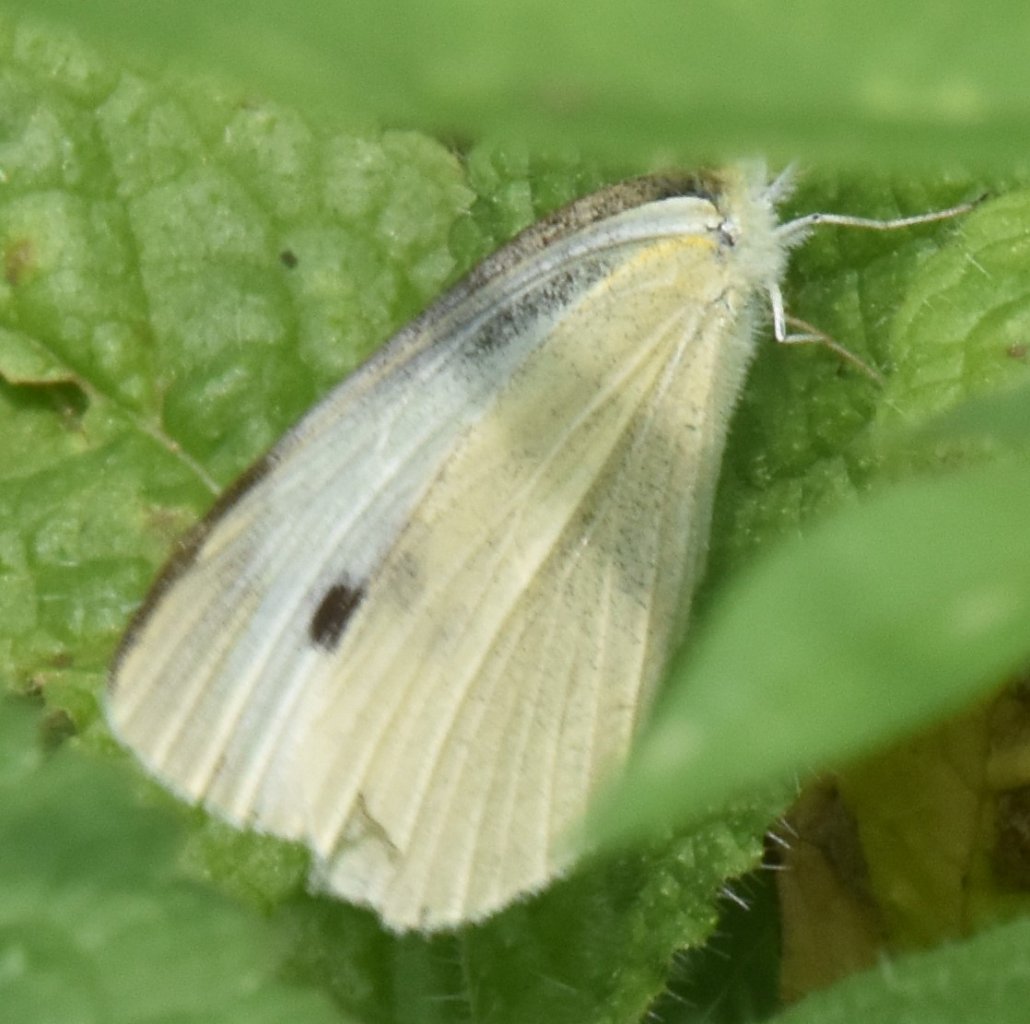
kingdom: Animalia
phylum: Arthropoda
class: Insecta
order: Lepidoptera
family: Pieridae
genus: Pieris
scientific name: Pieris rapae
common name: Cabbage White
